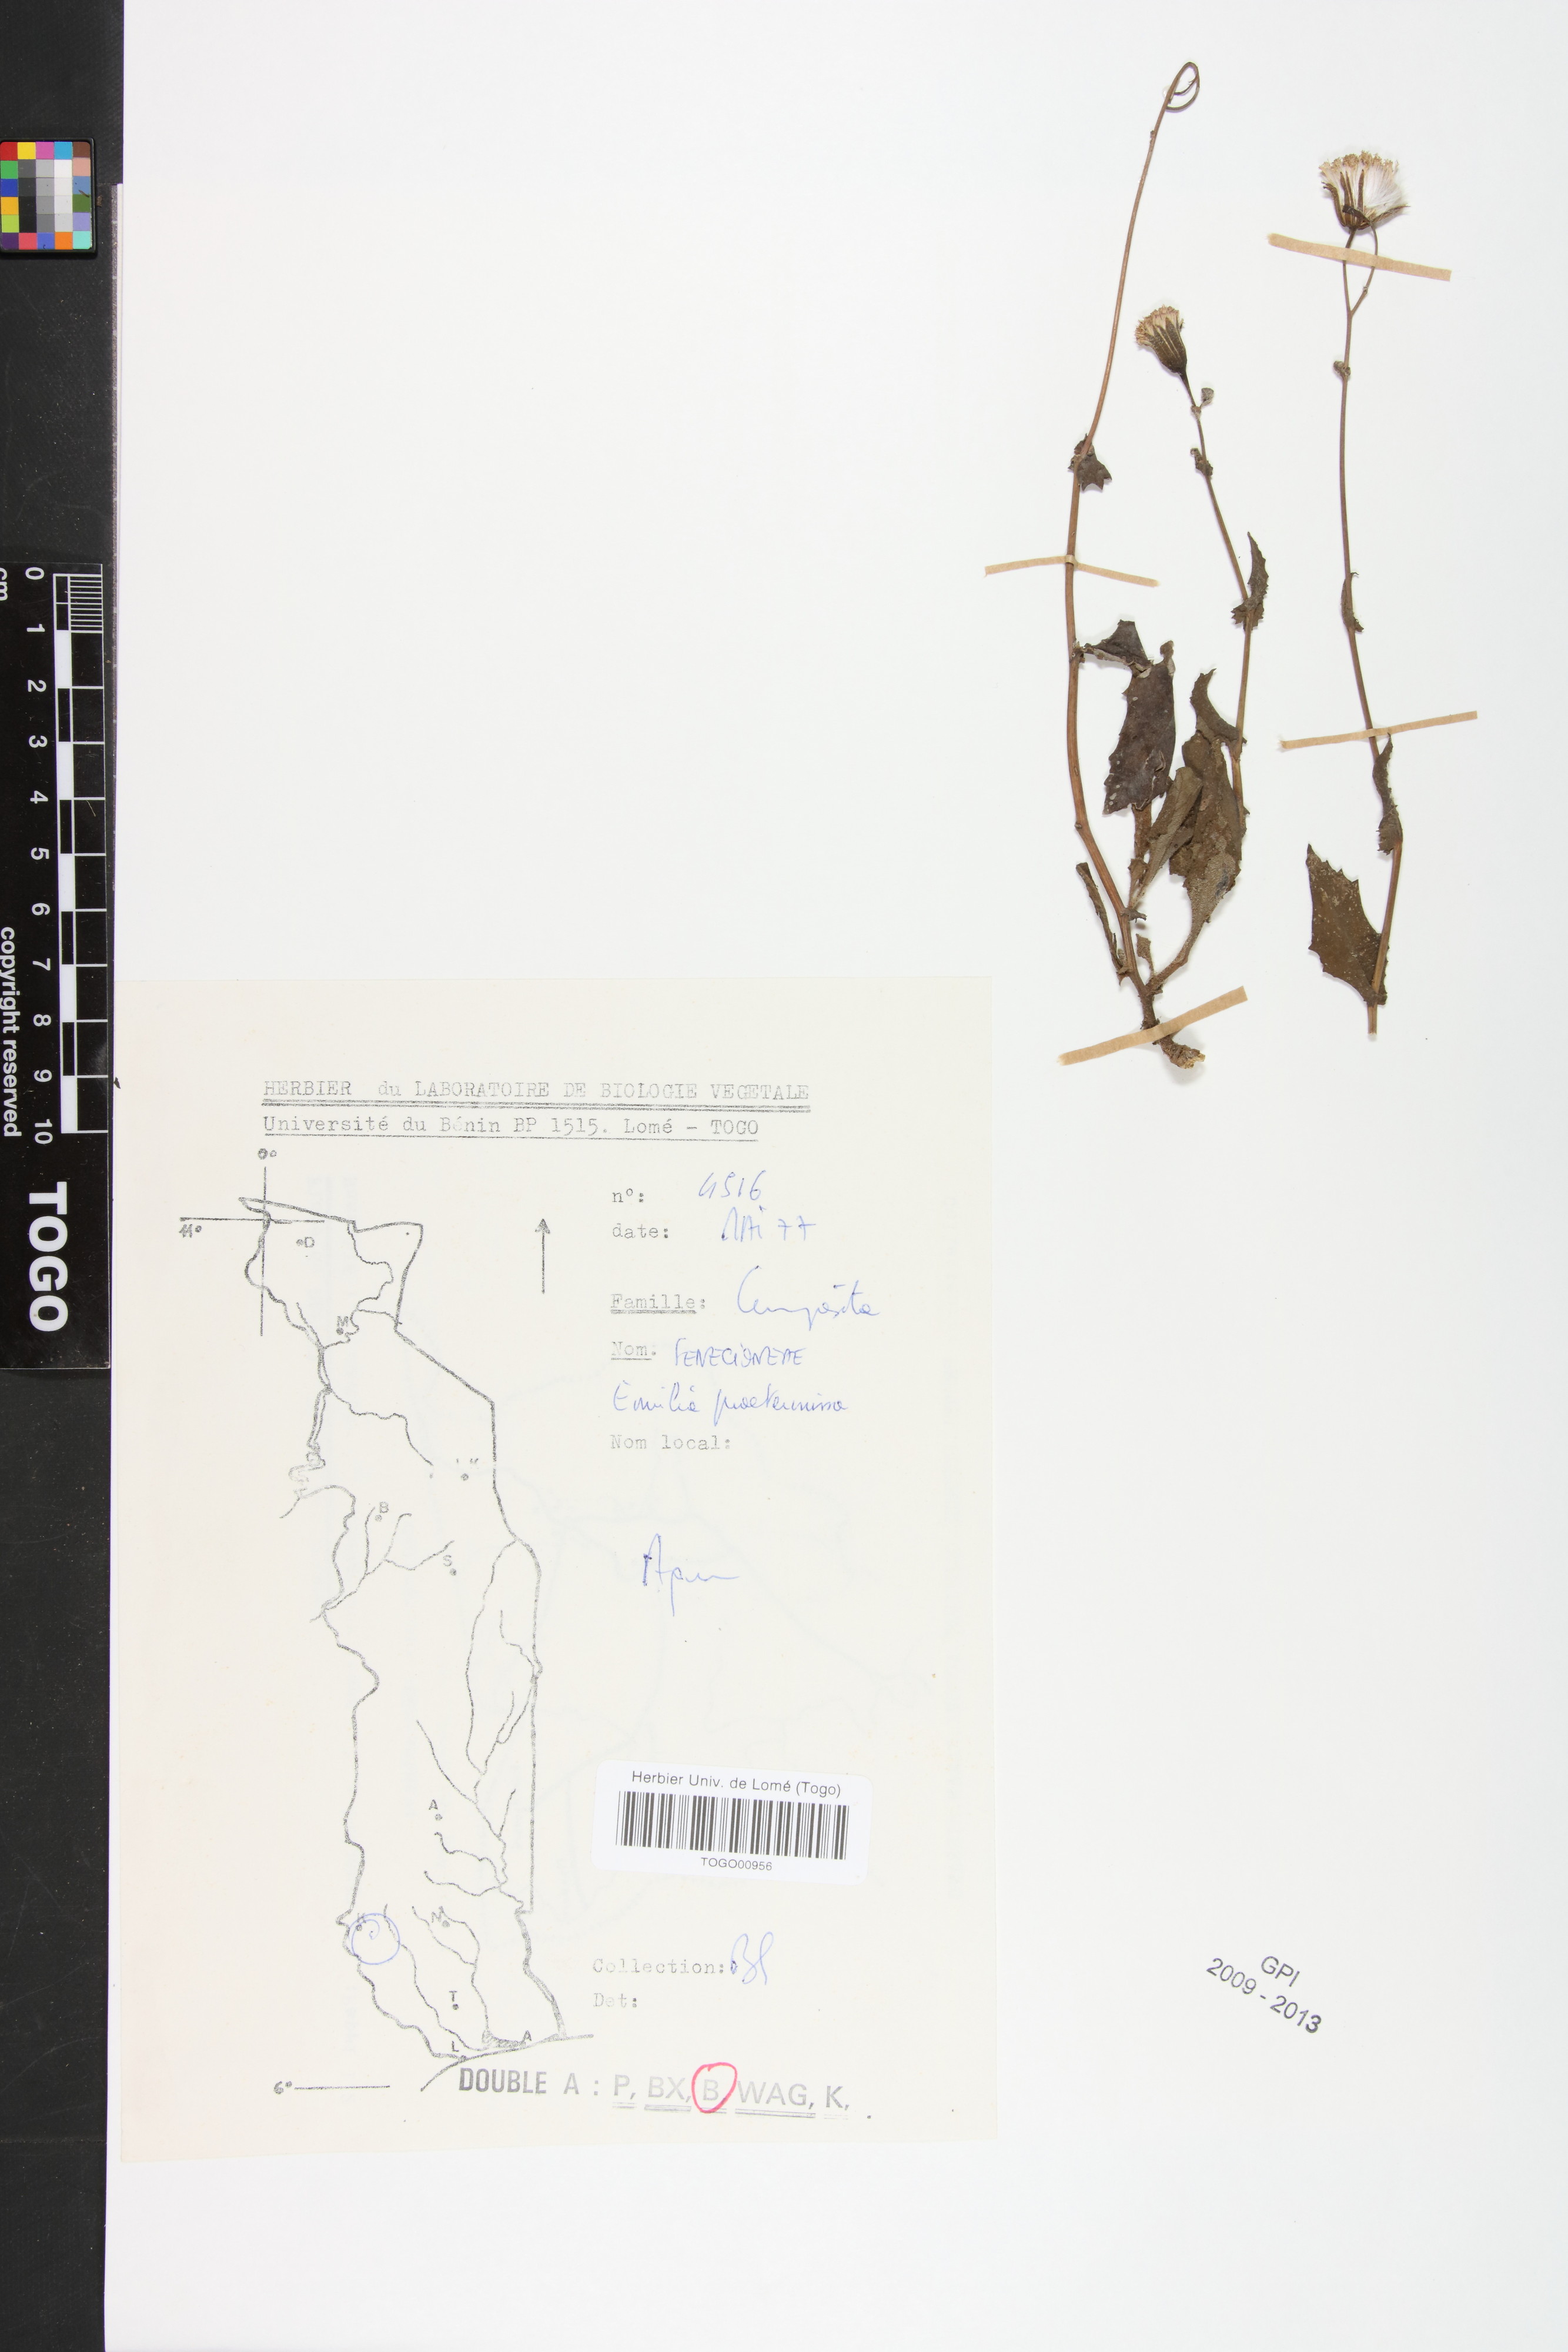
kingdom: Plantae
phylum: Tracheophyta
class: Magnoliopsida
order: Asterales
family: Asteraceae
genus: Emilia
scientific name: Emilia praetermissa
